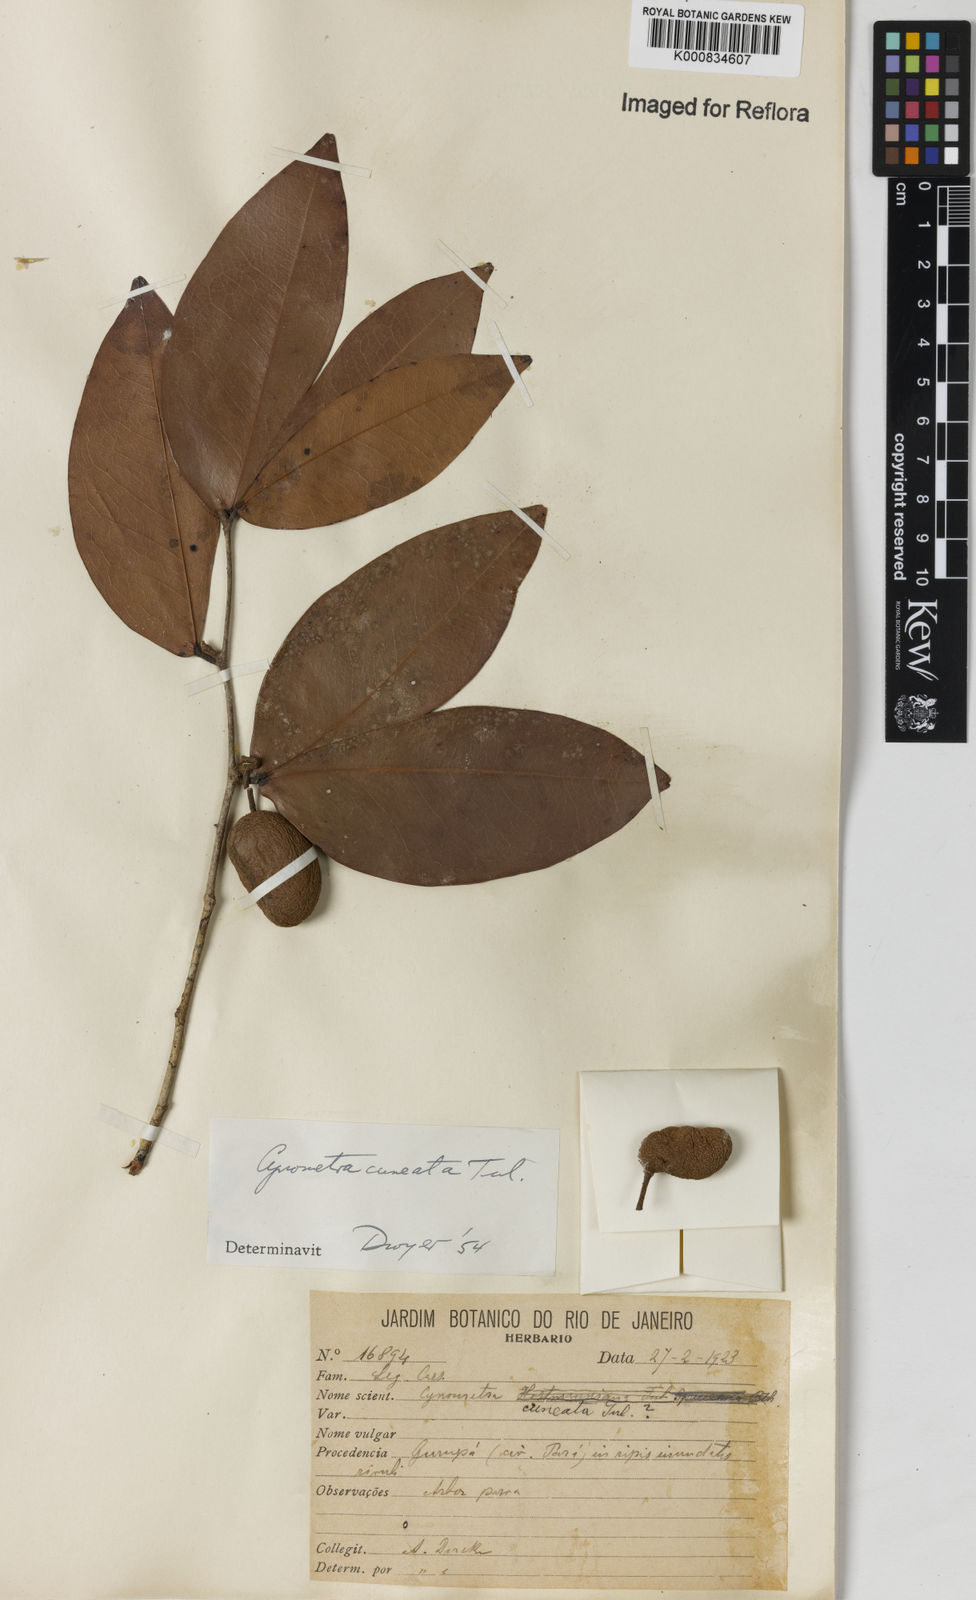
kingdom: Plantae
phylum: Tracheophyta
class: Magnoliopsida
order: Fabales
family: Fabaceae
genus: Cynometra
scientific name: Cynometra cuneata
